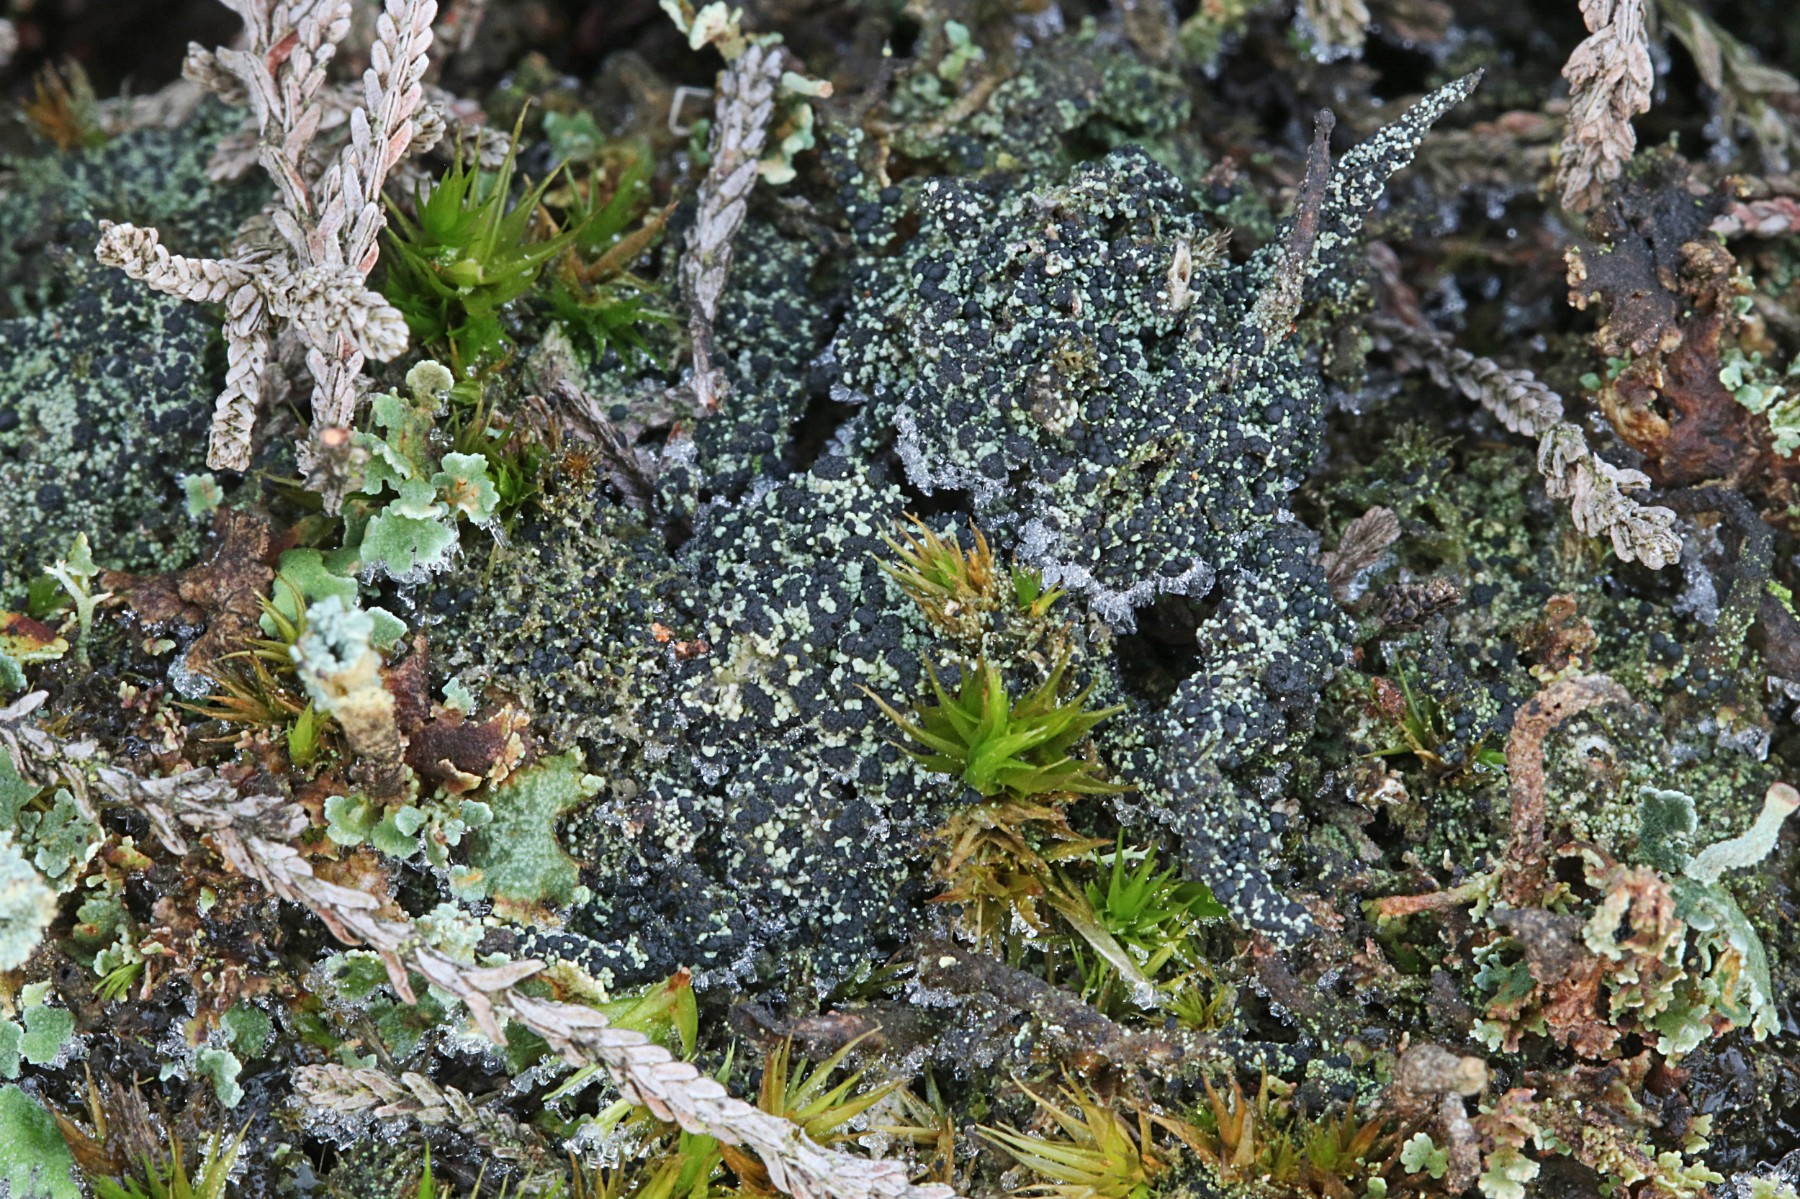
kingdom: Fungi
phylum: Ascomycota
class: Lecanoromycetes
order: Lecanorales
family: Byssolomataceae
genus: Micarea
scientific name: Micarea lignaria
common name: tørve-knaplav
